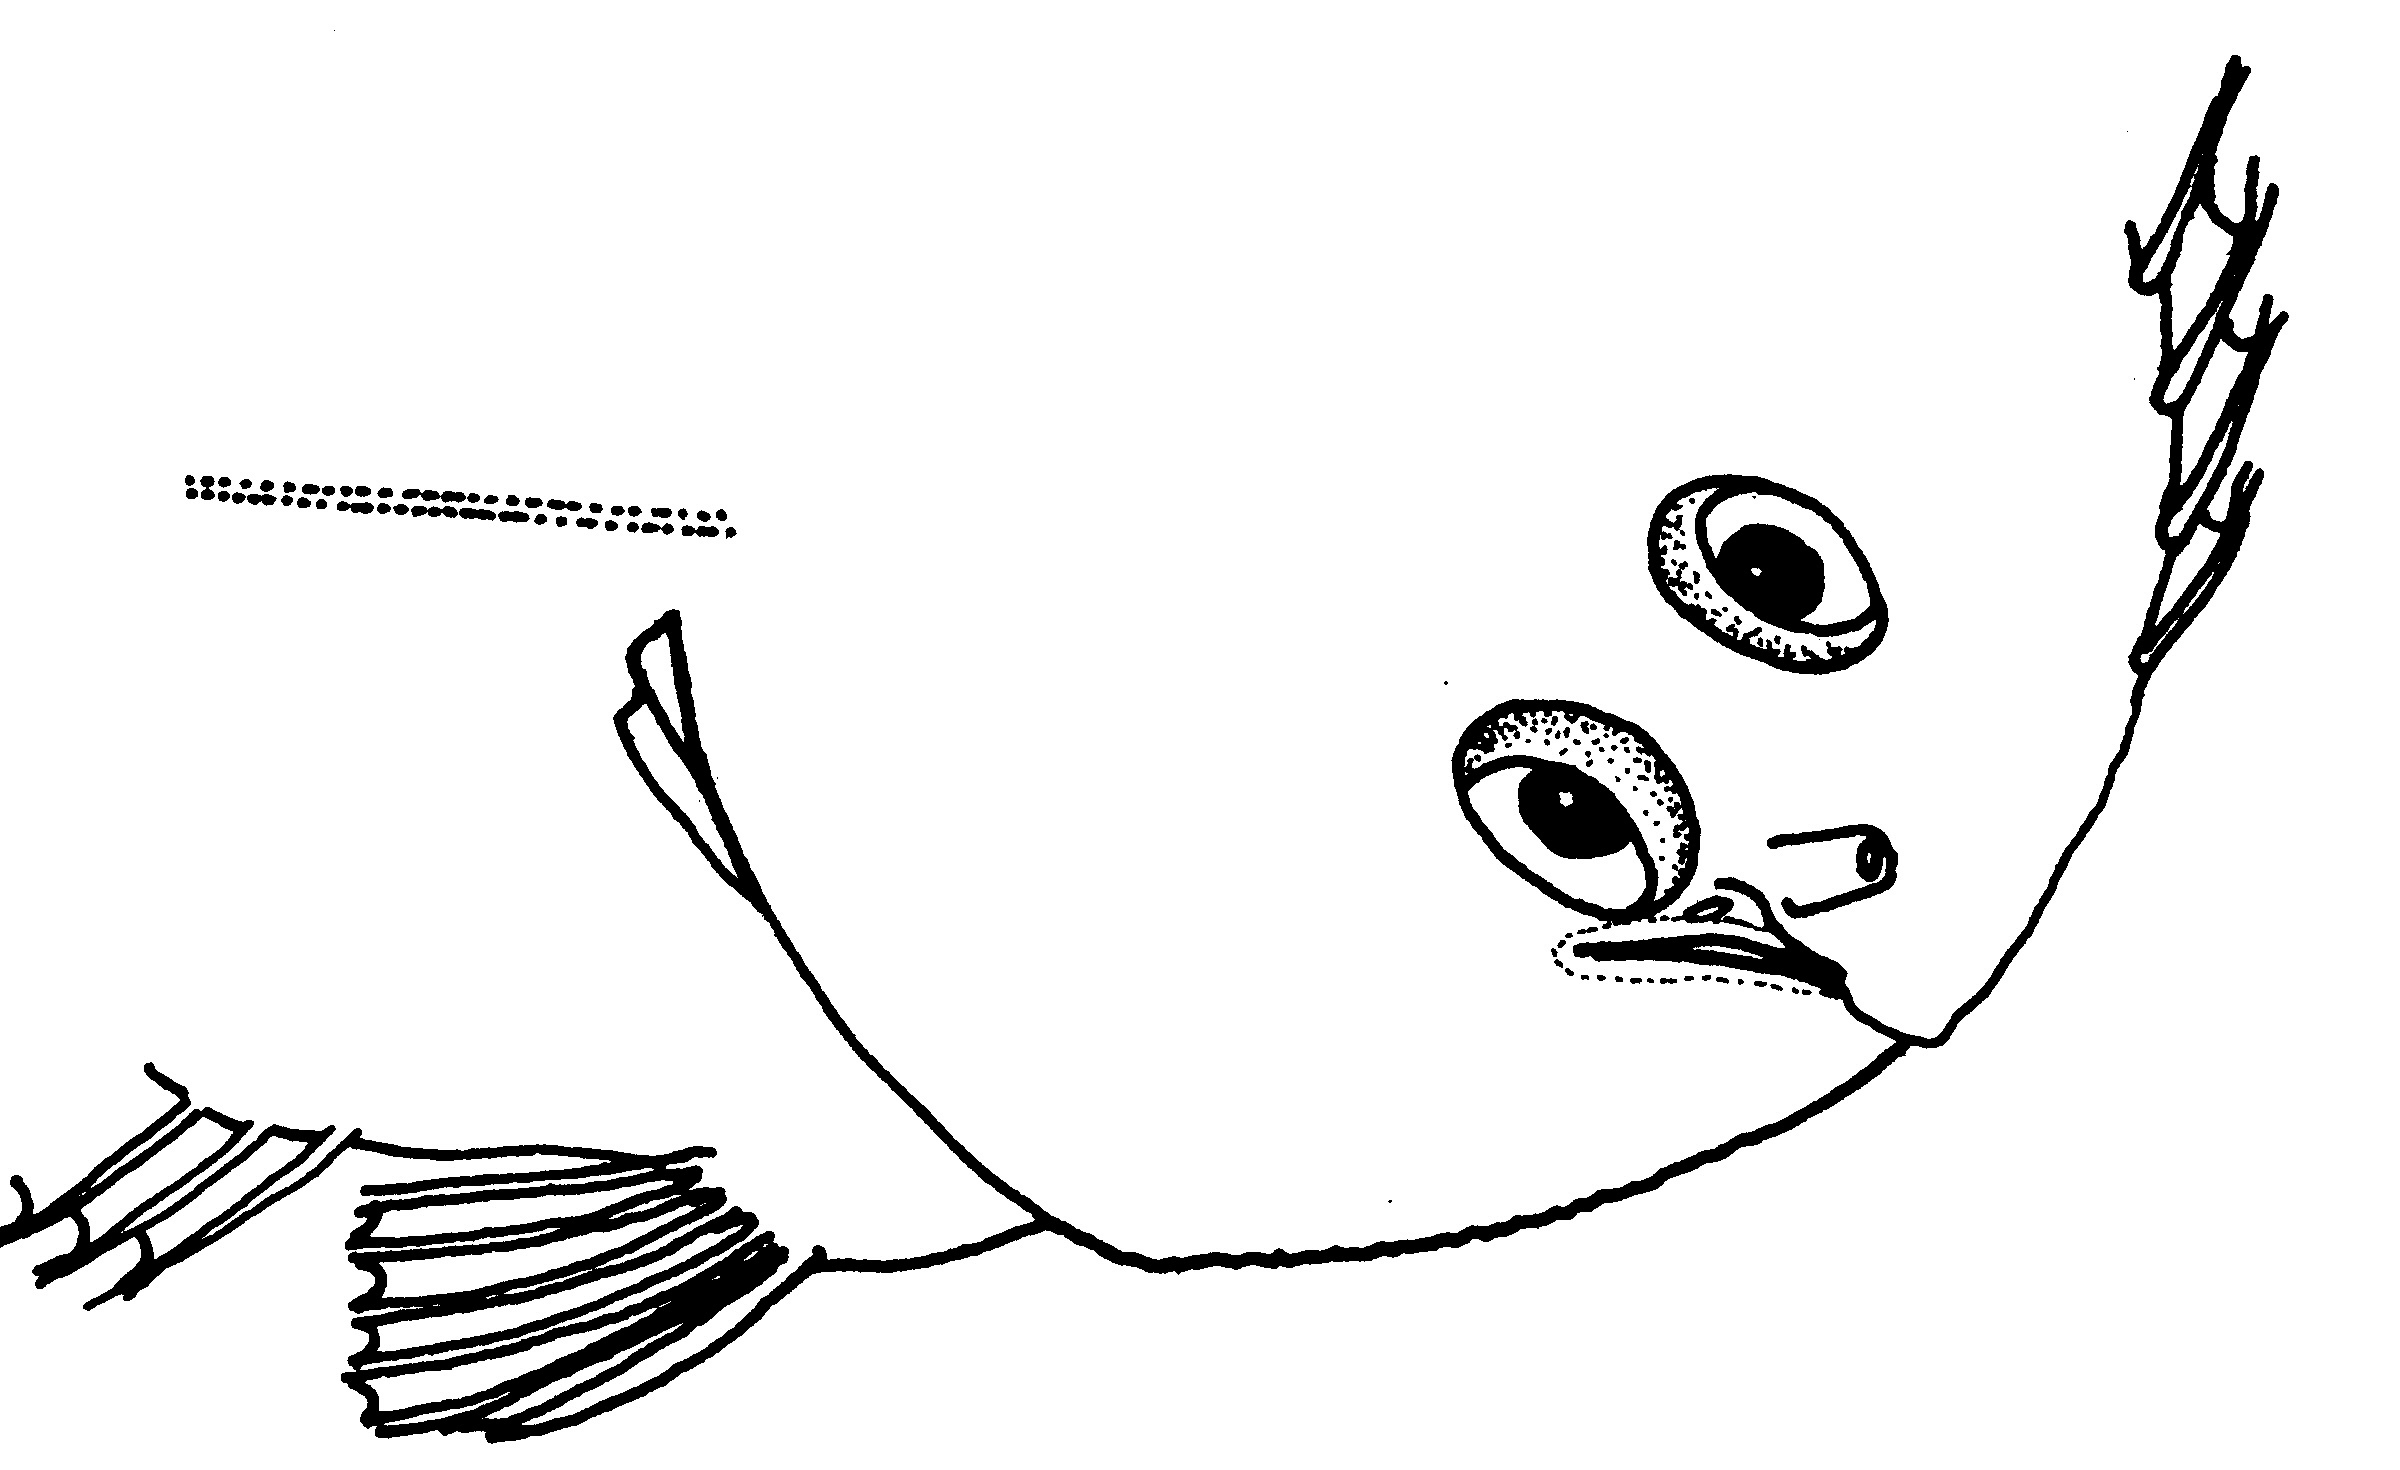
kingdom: Animalia
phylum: Chordata
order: Pleuronectiformes
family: Soleidae
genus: Pardachirus
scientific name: Pardachirus morrowi
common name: Persian carpet sole
